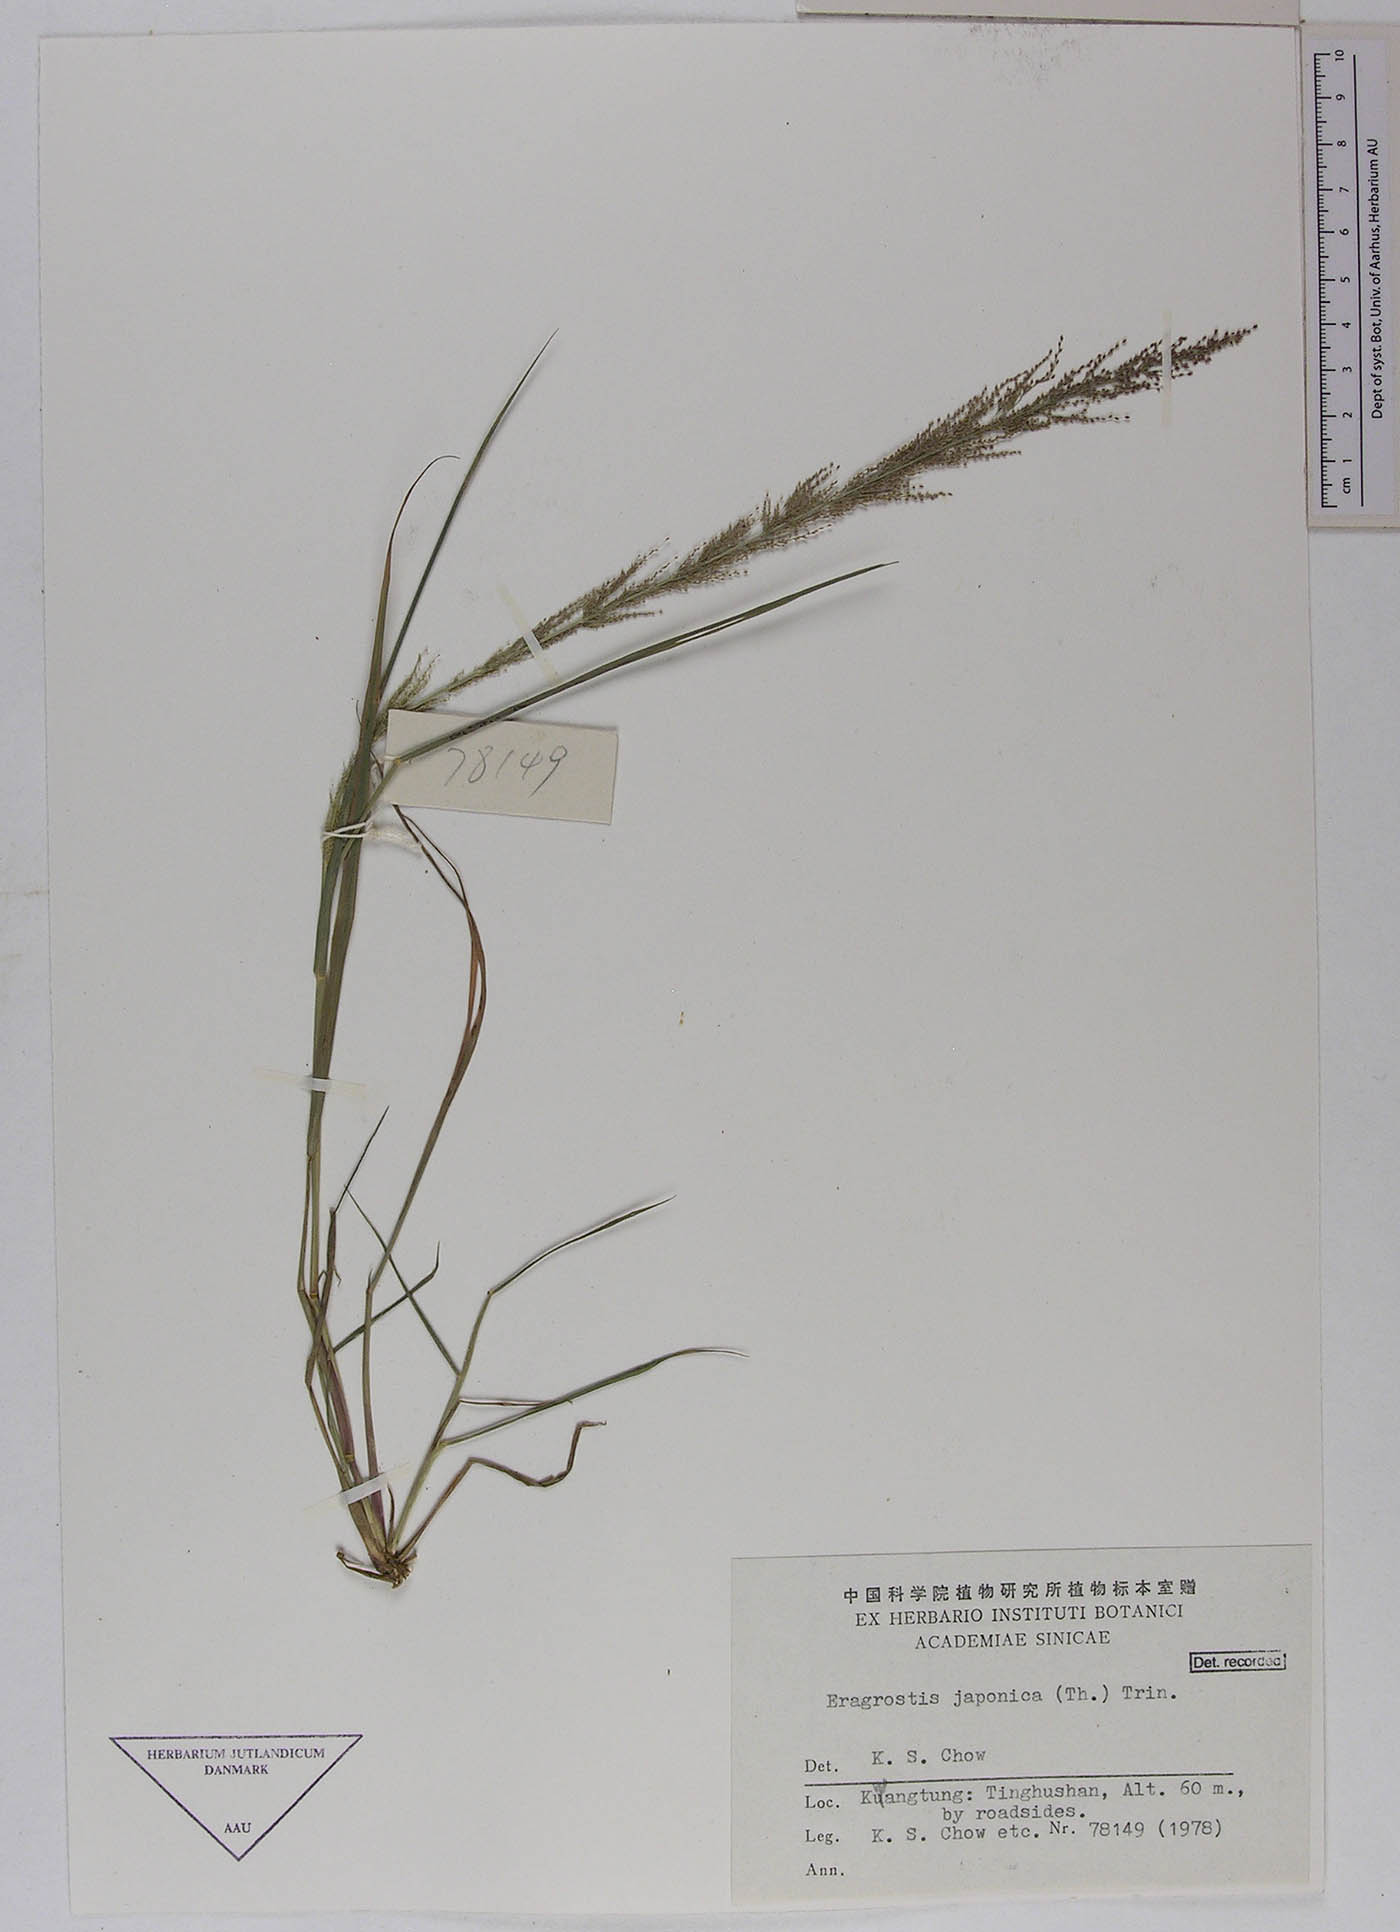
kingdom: Plantae
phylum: Tracheophyta
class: Liliopsida
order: Poales
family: Poaceae
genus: Eragrostis
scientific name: Eragrostis japonica
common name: Pond lovegrass
